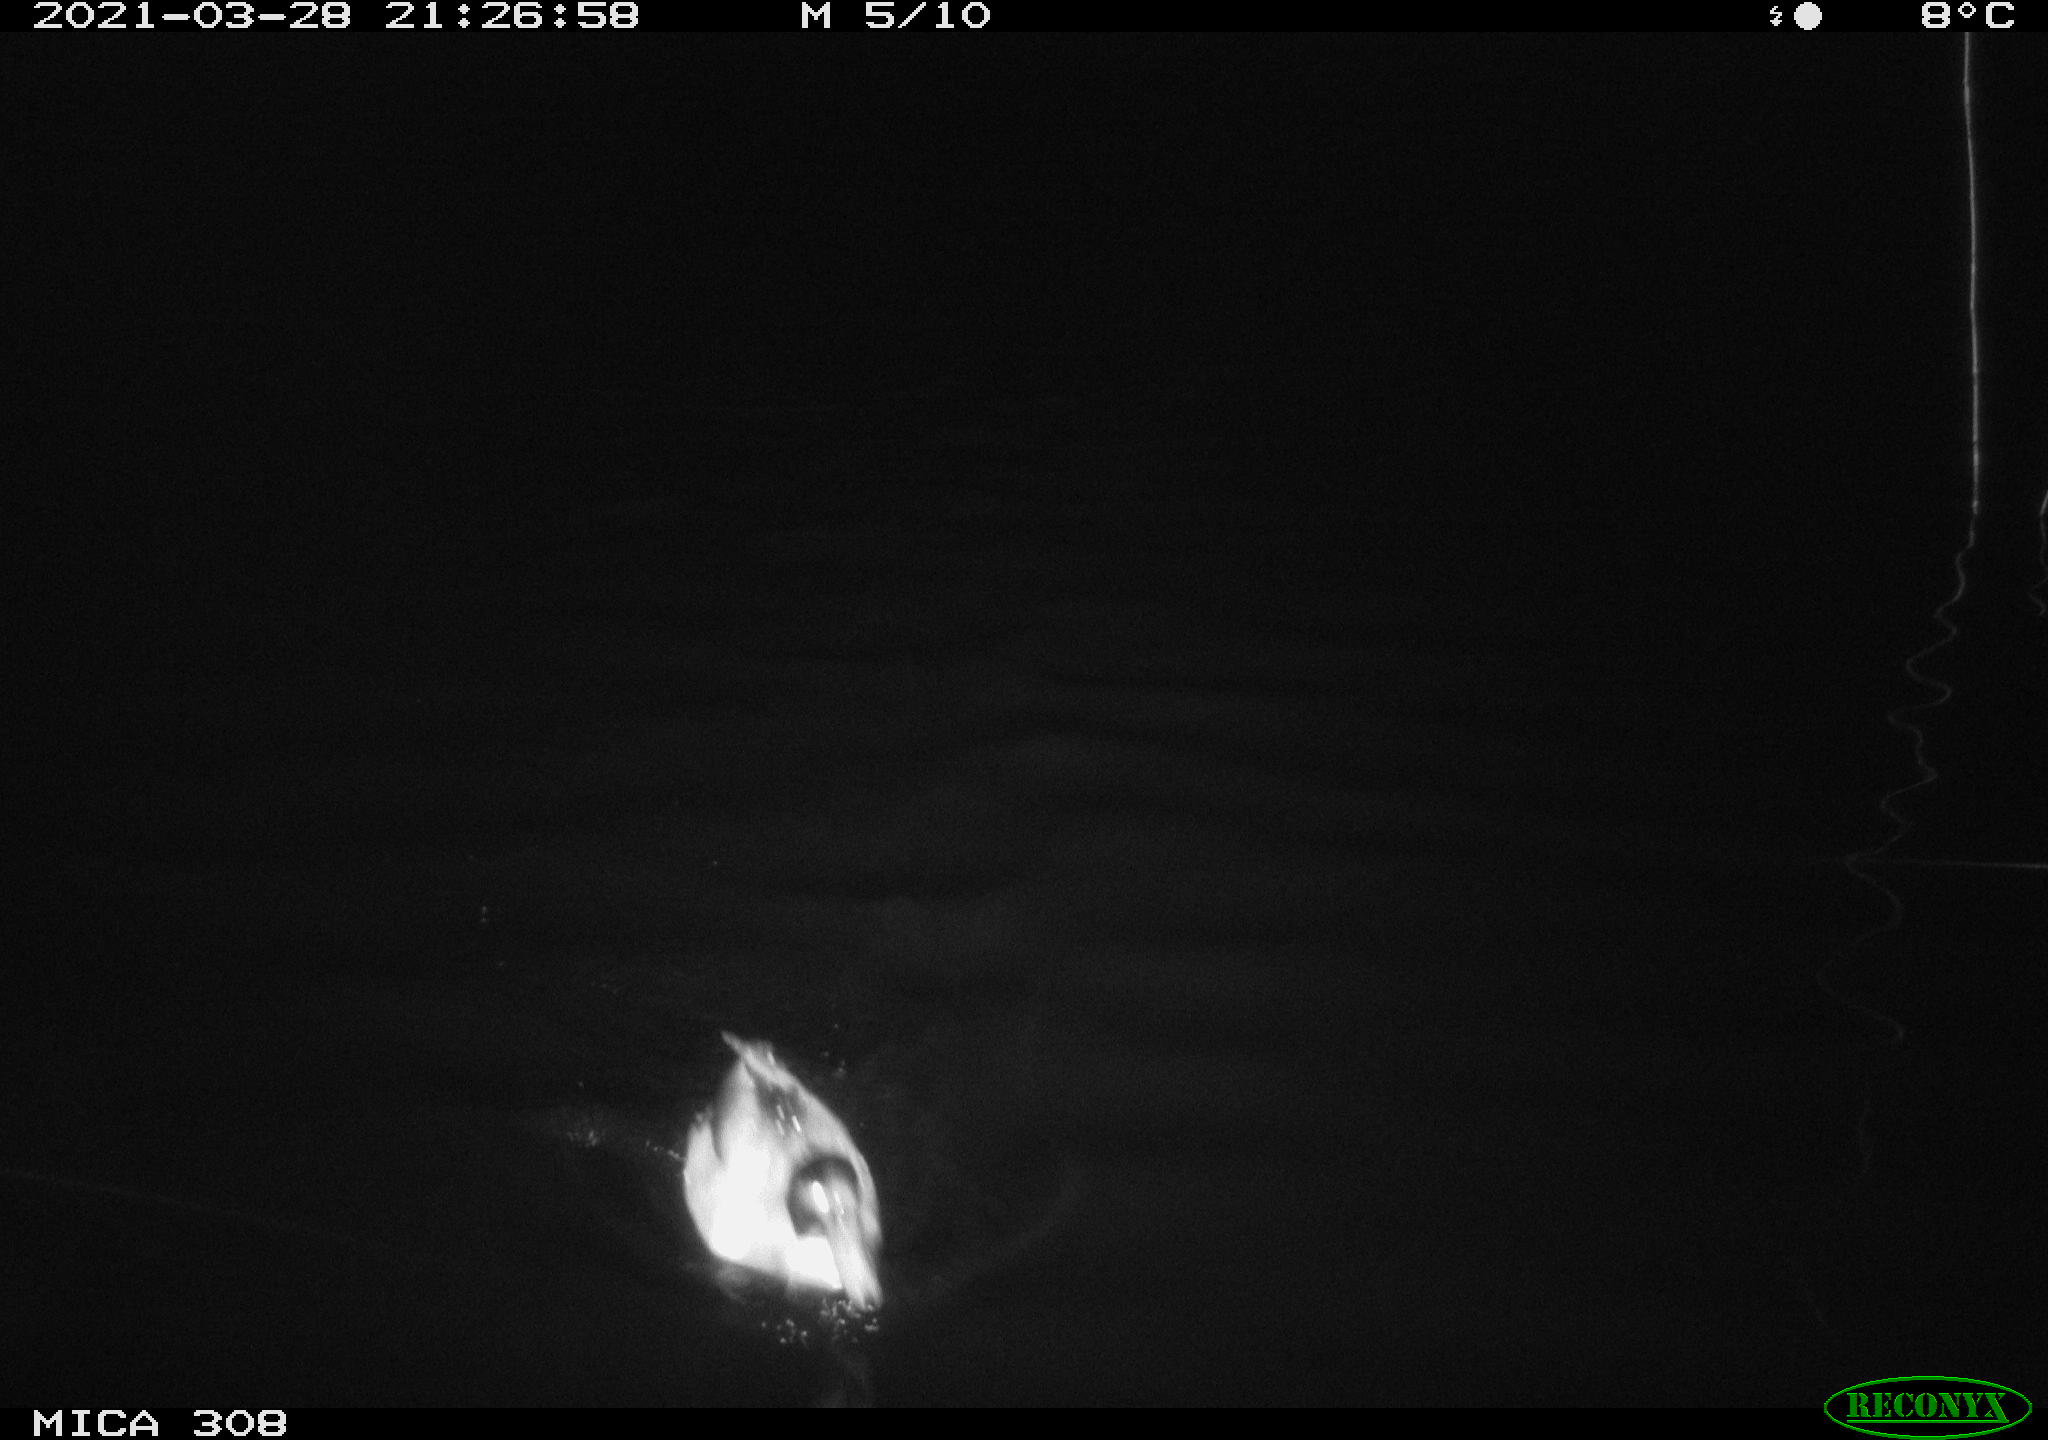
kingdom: Animalia
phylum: Chordata
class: Aves
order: Anseriformes
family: Anatidae
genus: Anas
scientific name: Anas platyrhynchos
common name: Mallard
